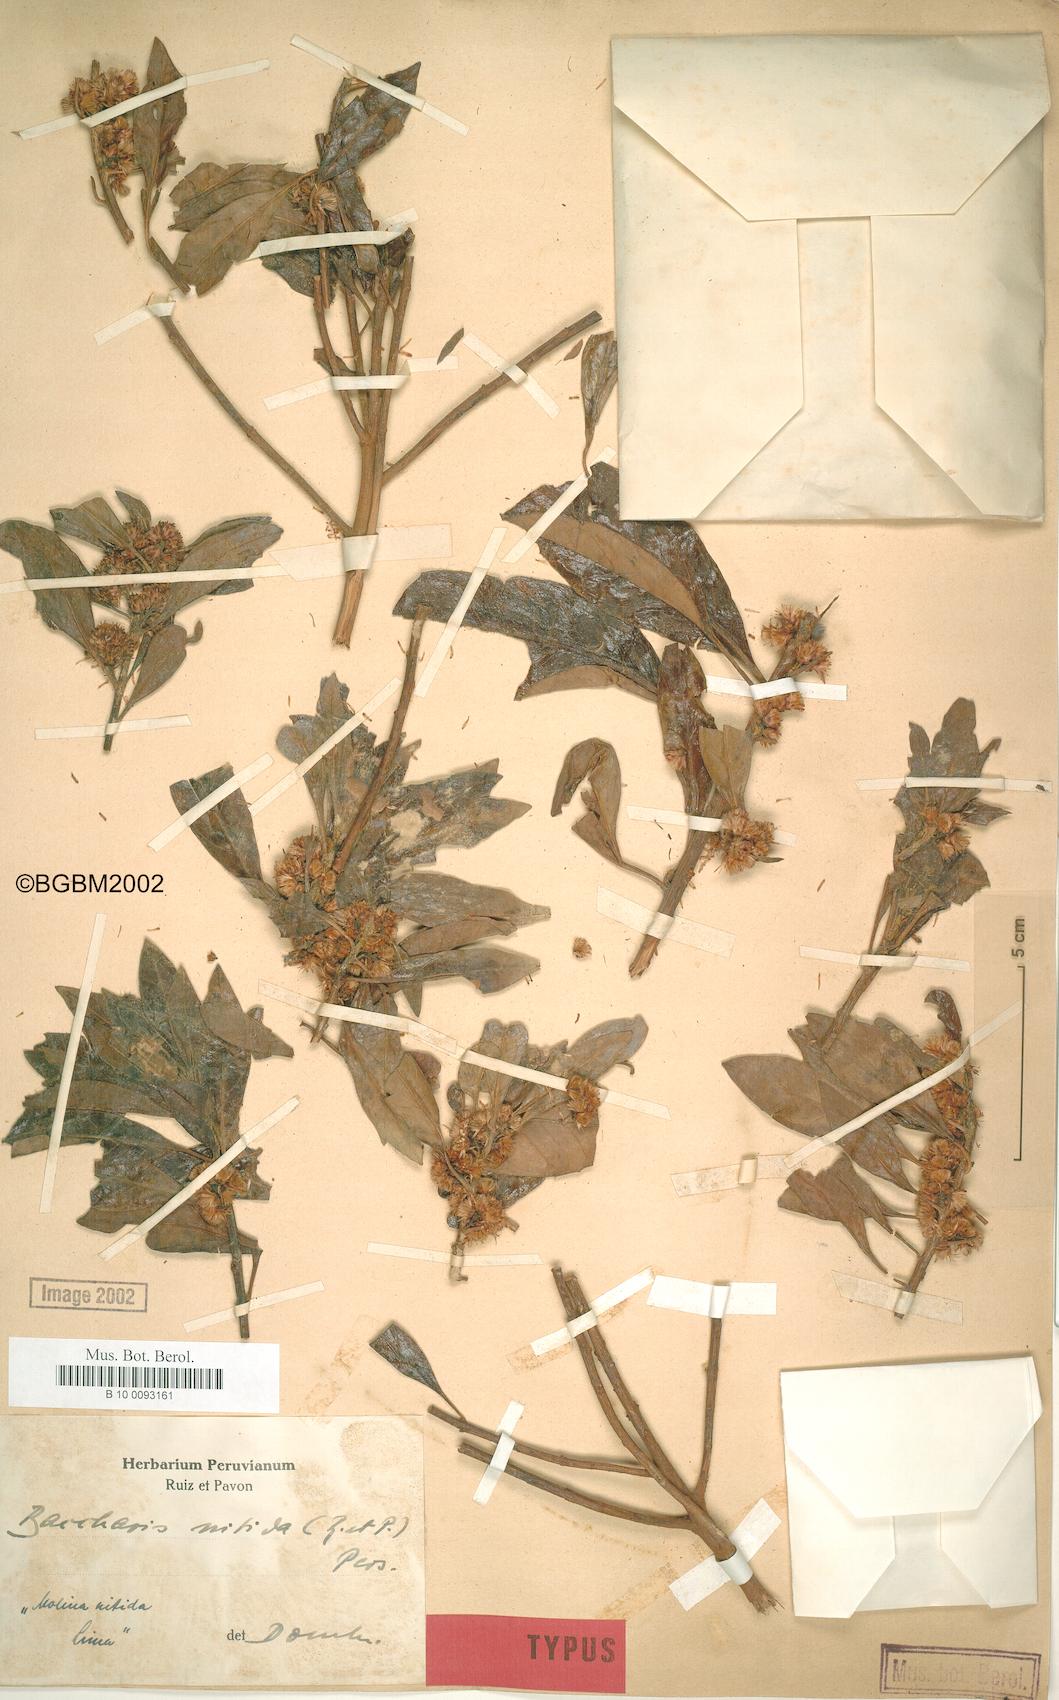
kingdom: Plantae
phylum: Tracheophyta
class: Magnoliopsida
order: Asterales
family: Asteraceae
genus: Baccharis
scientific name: Baccharis nitida
